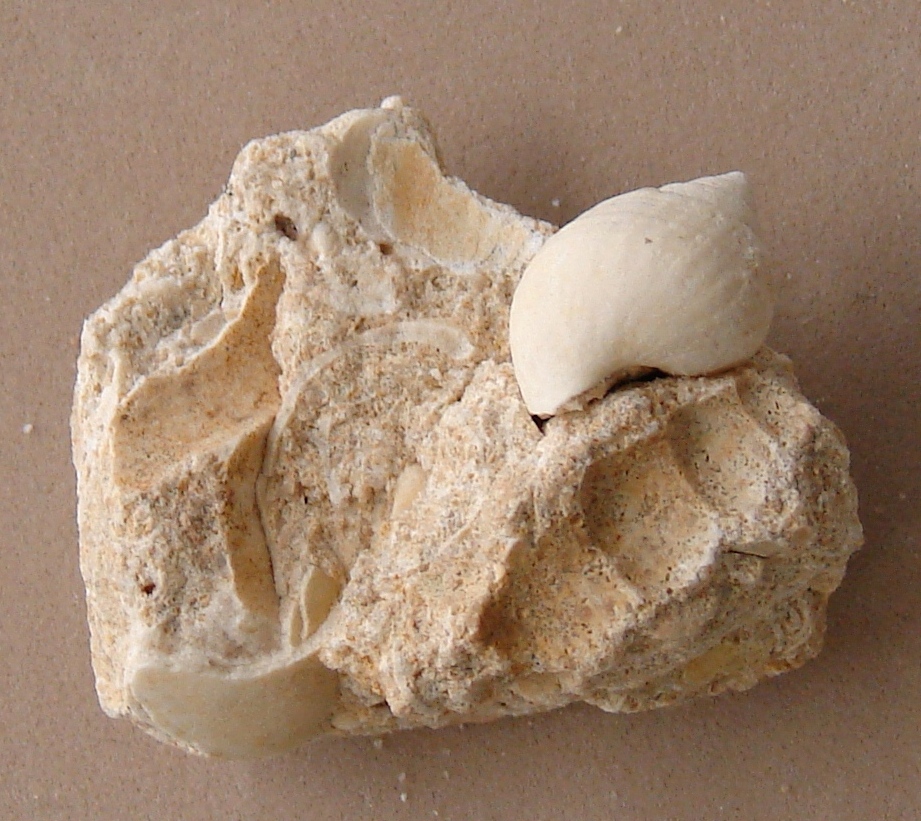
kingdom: Animalia
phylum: Mollusca
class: Gastropoda
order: Neogastropoda
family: Purpurinidae
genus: Microschiza
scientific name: Microschiza
